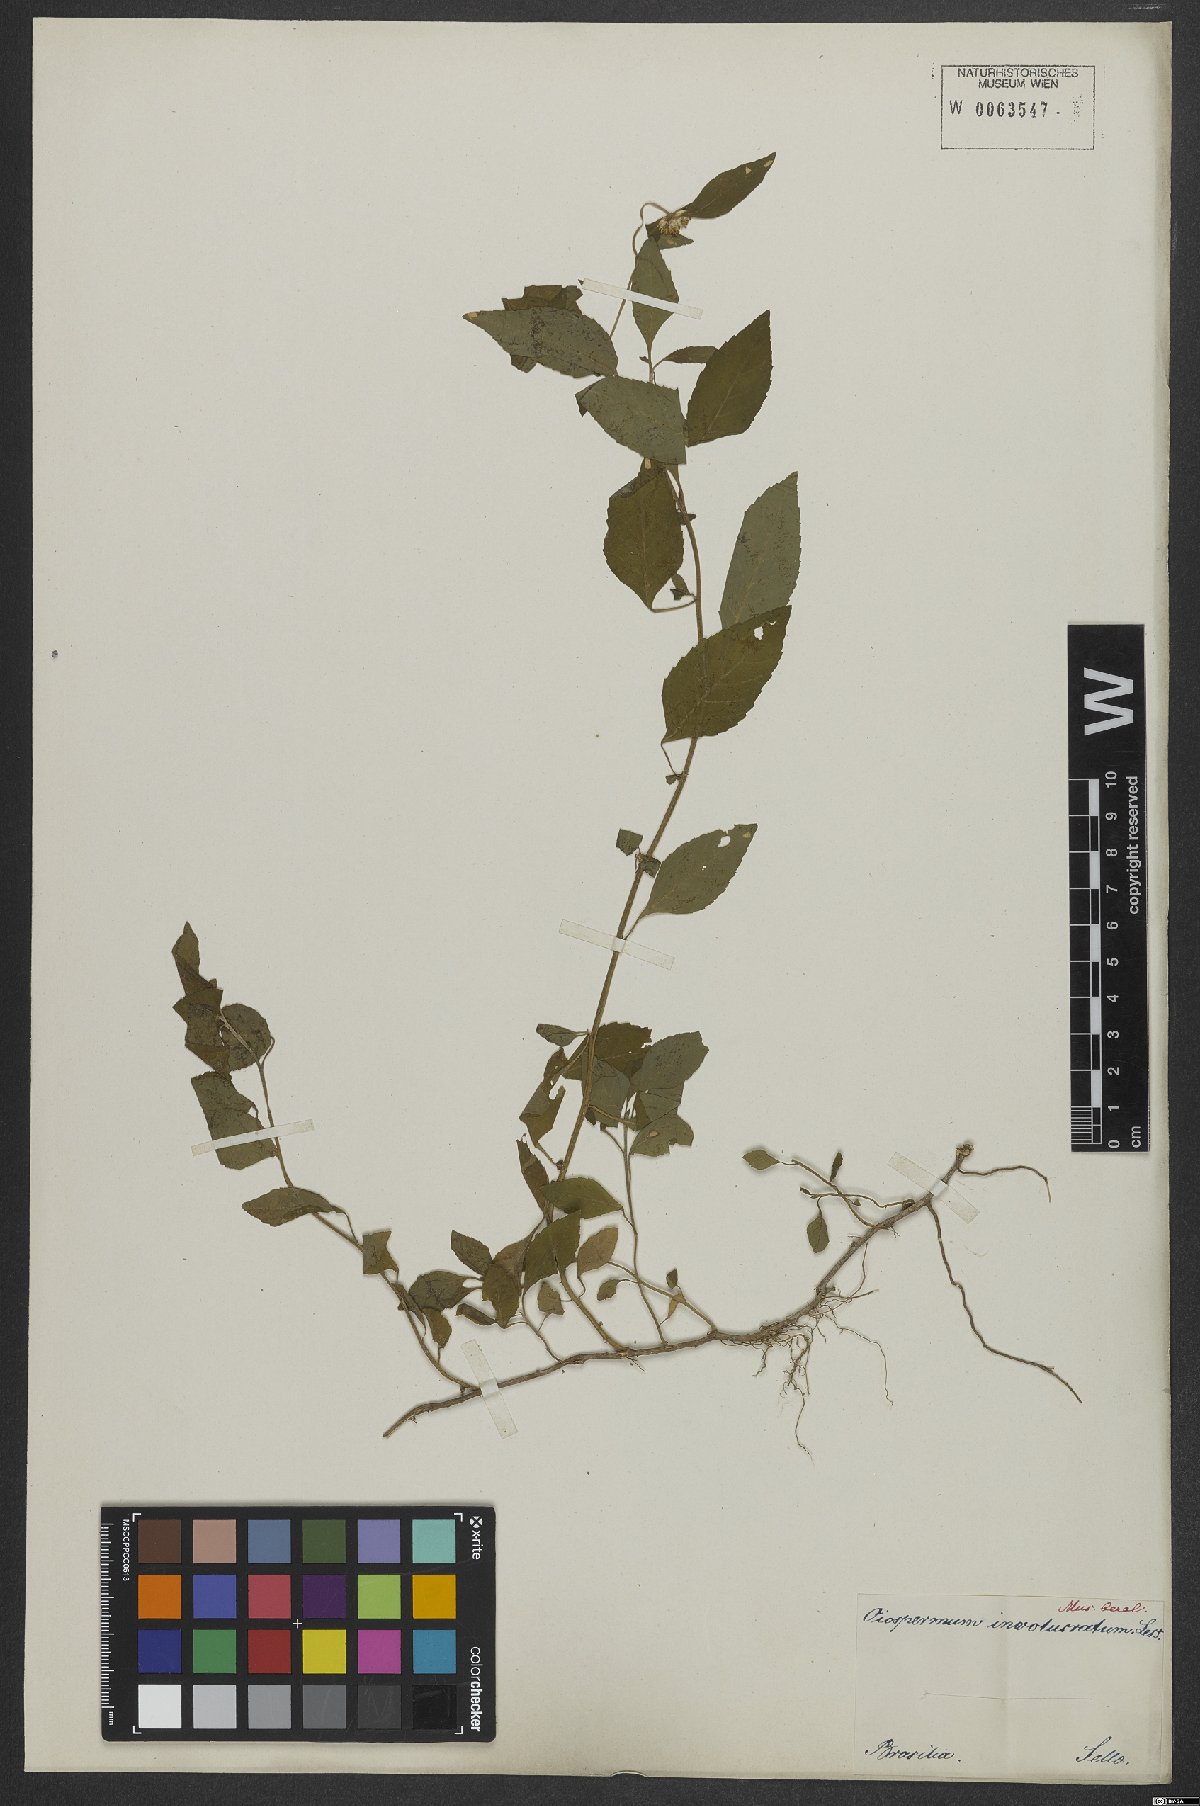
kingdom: Plantae
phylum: Tracheophyta
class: Magnoliopsida
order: Asterales
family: Asteraceae
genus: Centratherum
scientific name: Centratherum repens
